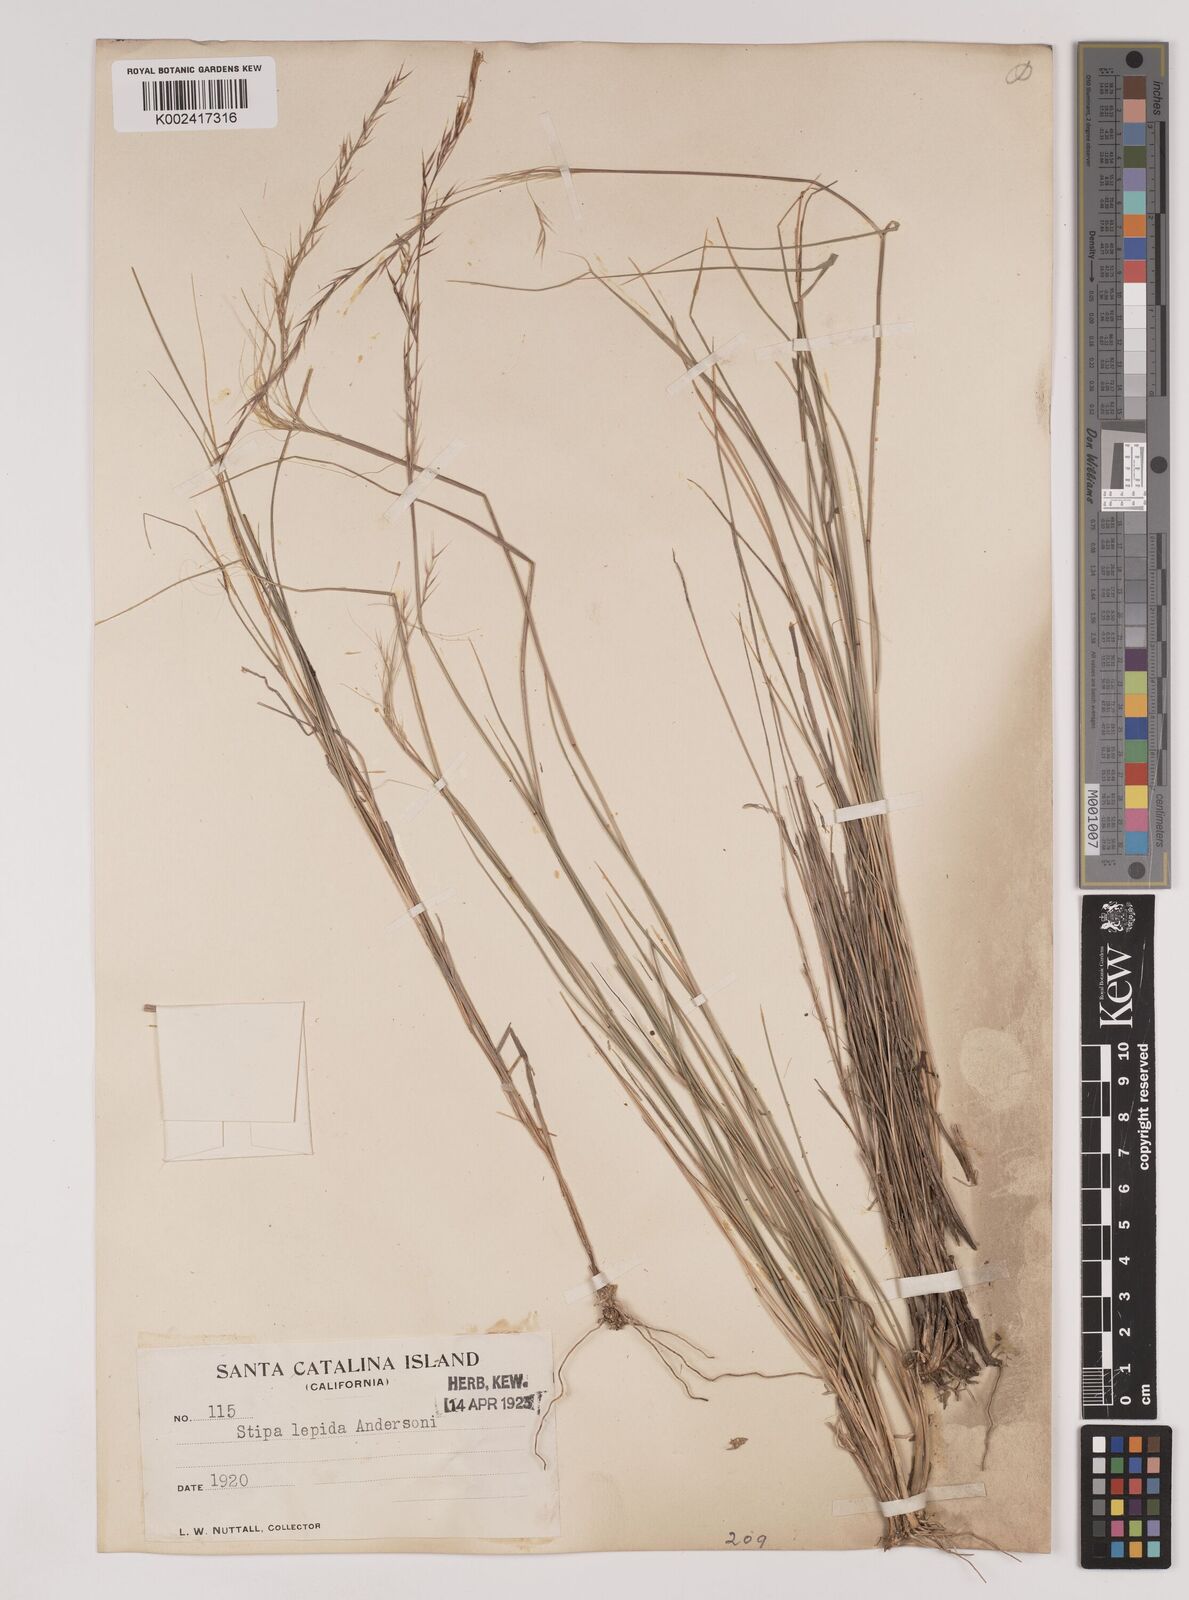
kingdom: Plantae
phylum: Tracheophyta
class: Liliopsida
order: Poales
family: Poaceae
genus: Nassella
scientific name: Nassella lepida
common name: Foothill needlegrass
